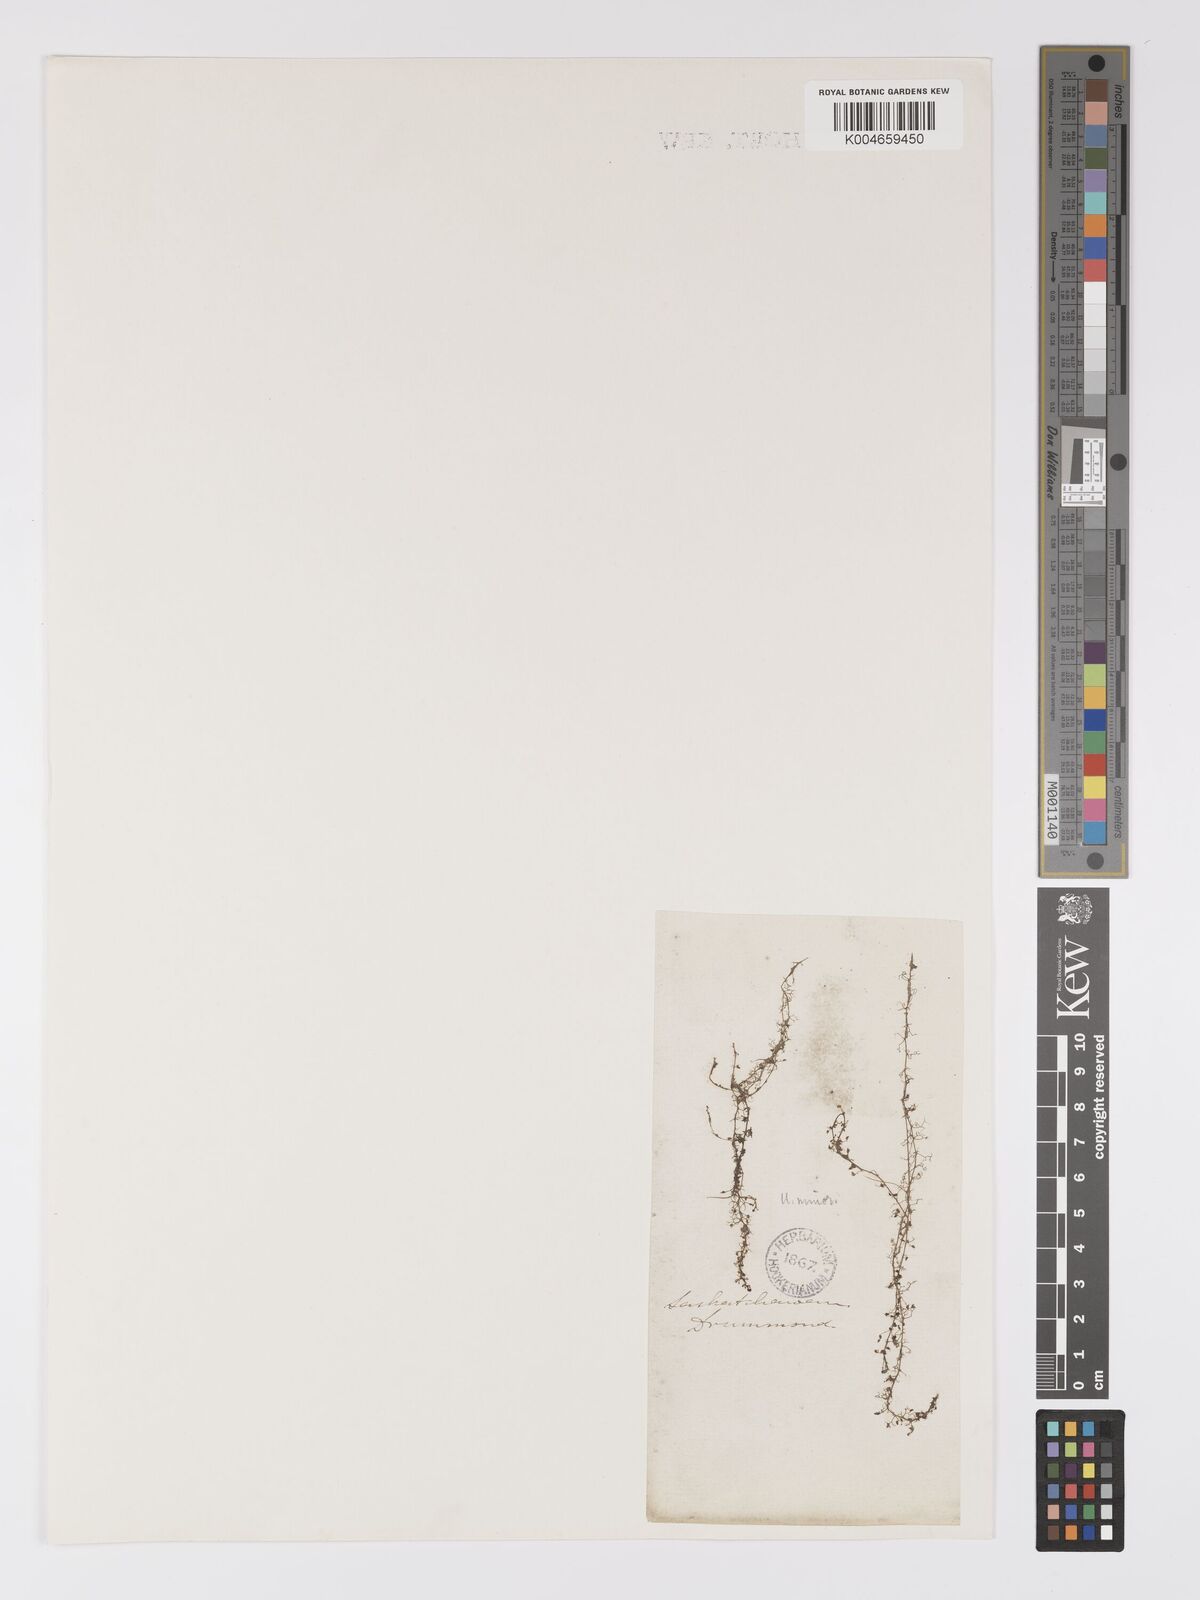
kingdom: Plantae
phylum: Tracheophyta
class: Magnoliopsida
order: Lamiales
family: Lentibulariaceae
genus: Utricularia
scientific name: Utricularia minor
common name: Lesser bladderwort
